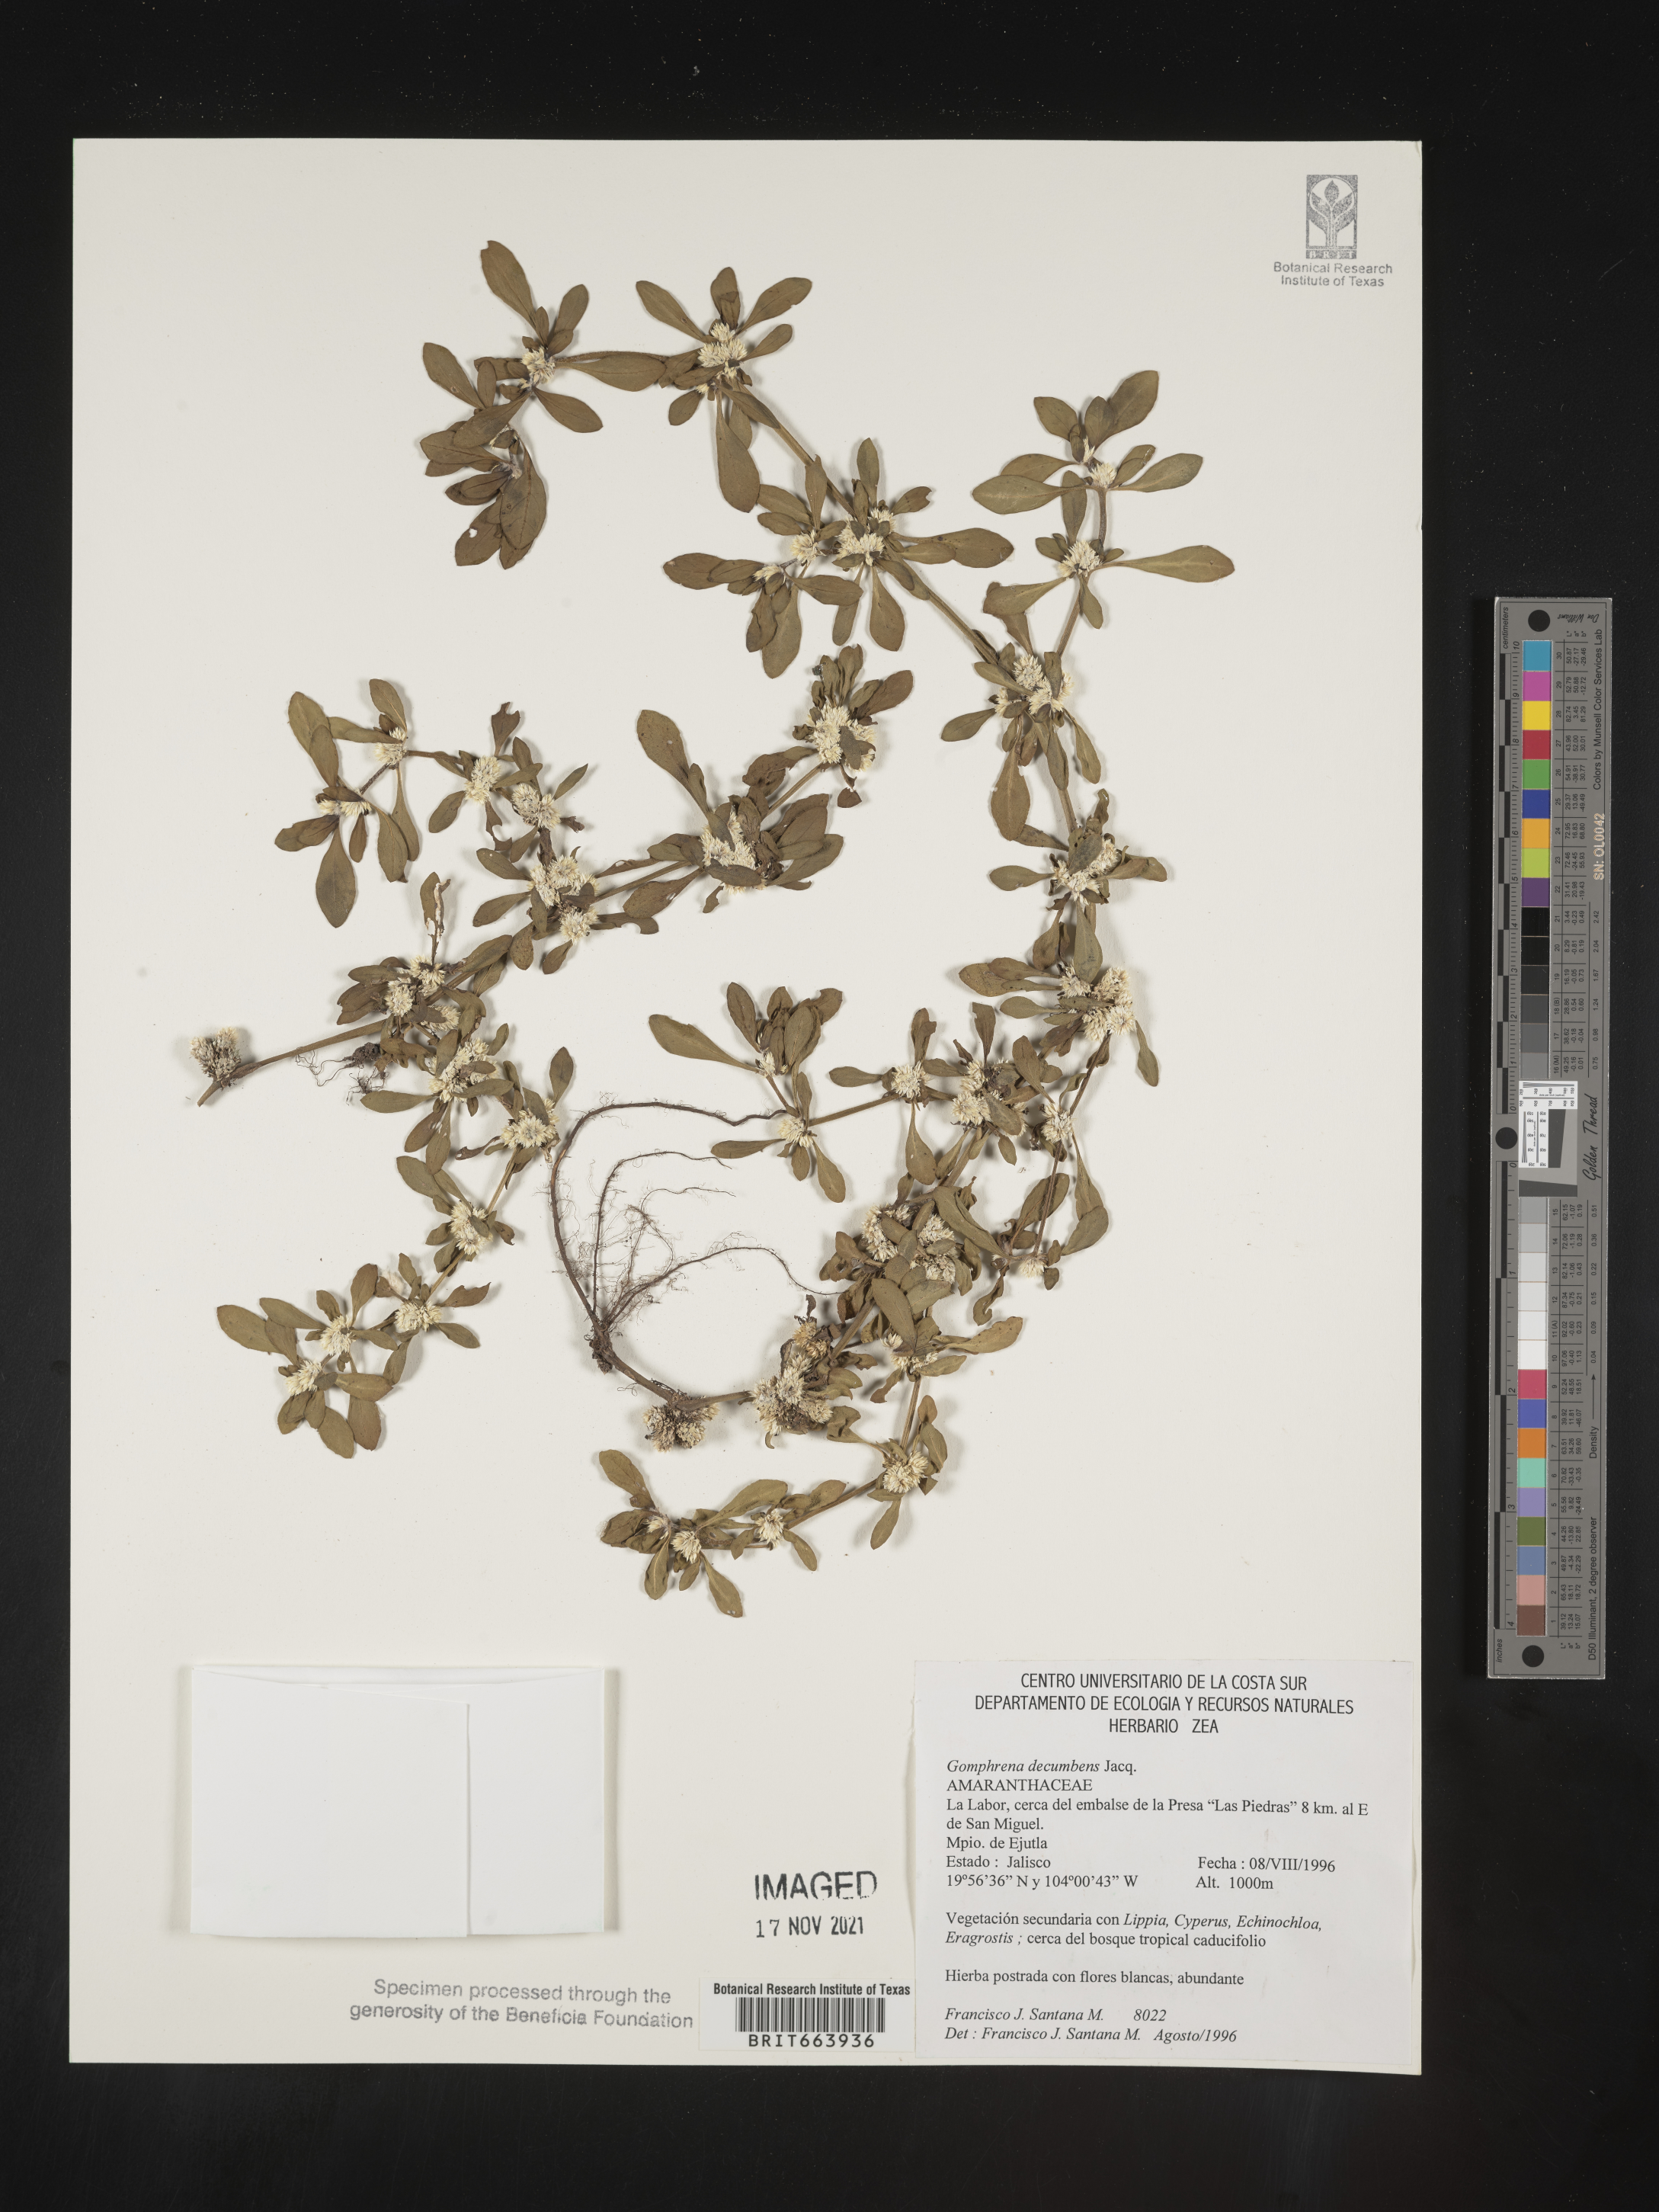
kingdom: Plantae
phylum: Tracheophyta
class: Magnoliopsida
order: Caryophyllales
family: Amaranthaceae
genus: Gomphrena
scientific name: Gomphrena
